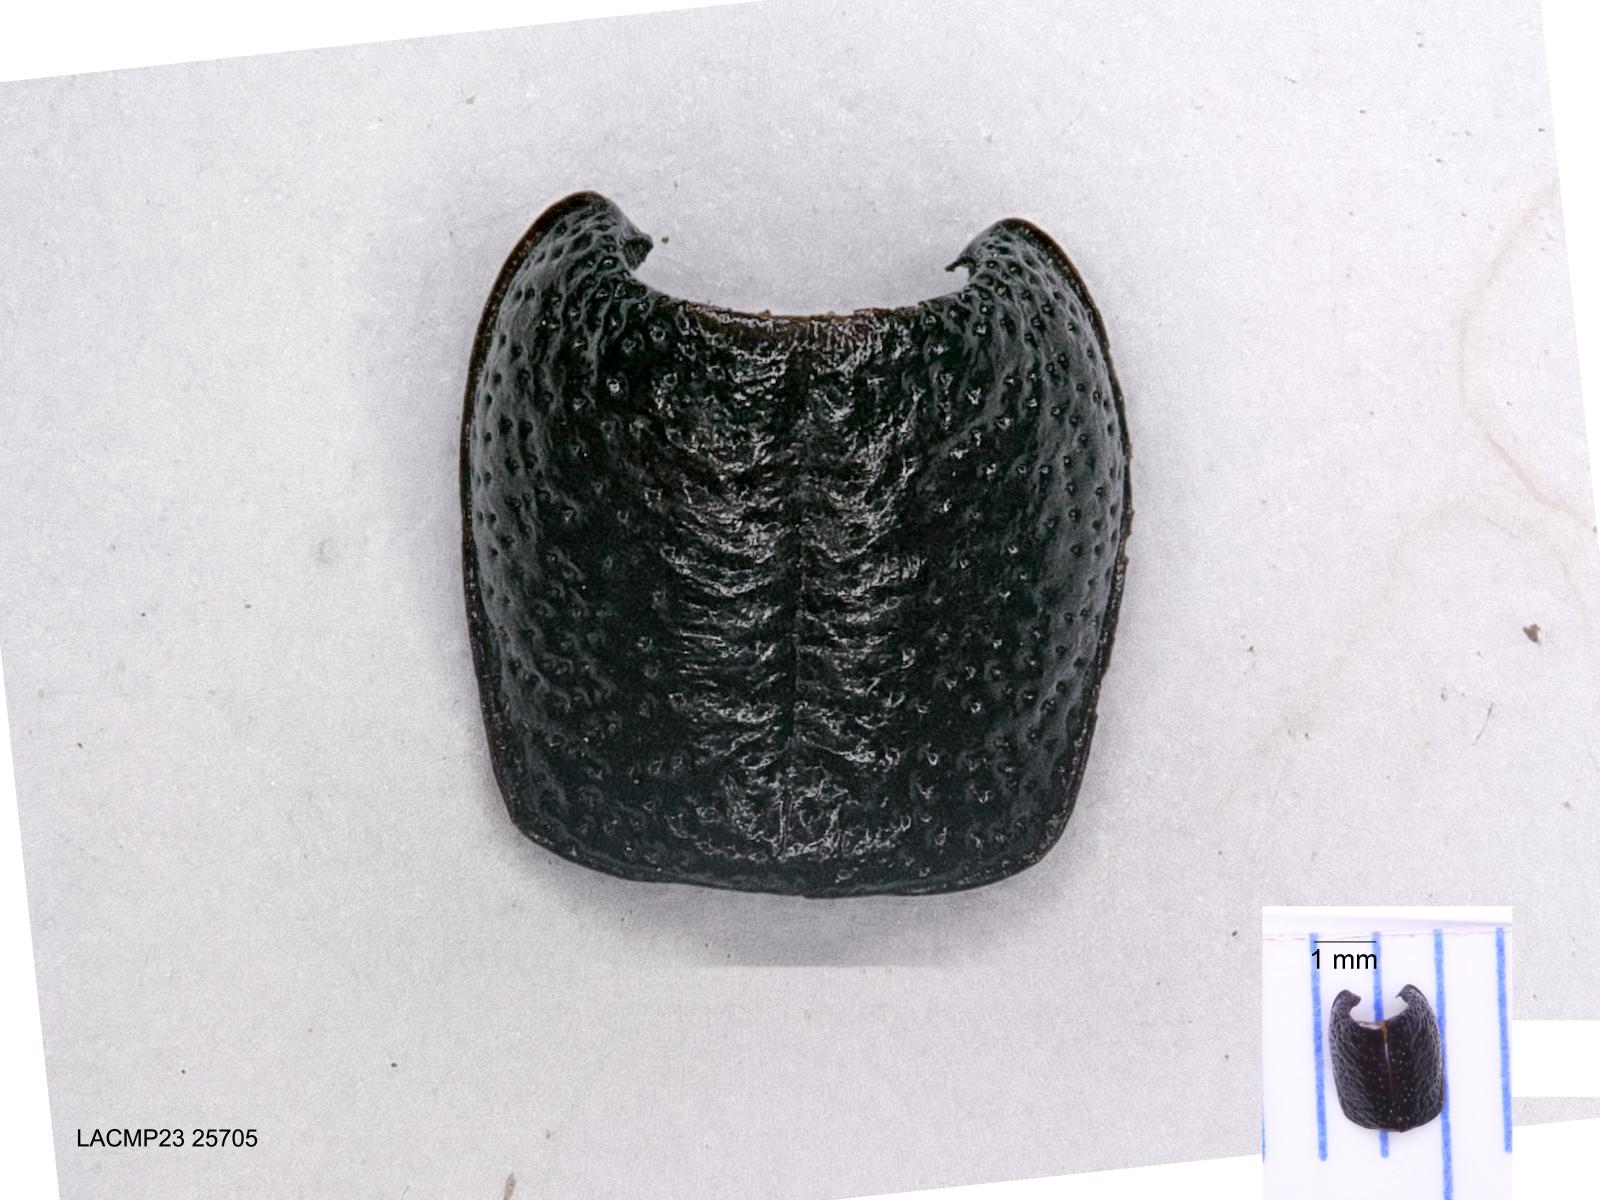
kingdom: Animalia
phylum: Arthropoda
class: Insecta
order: Coleoptera
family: Carabidae
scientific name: Carabidae
